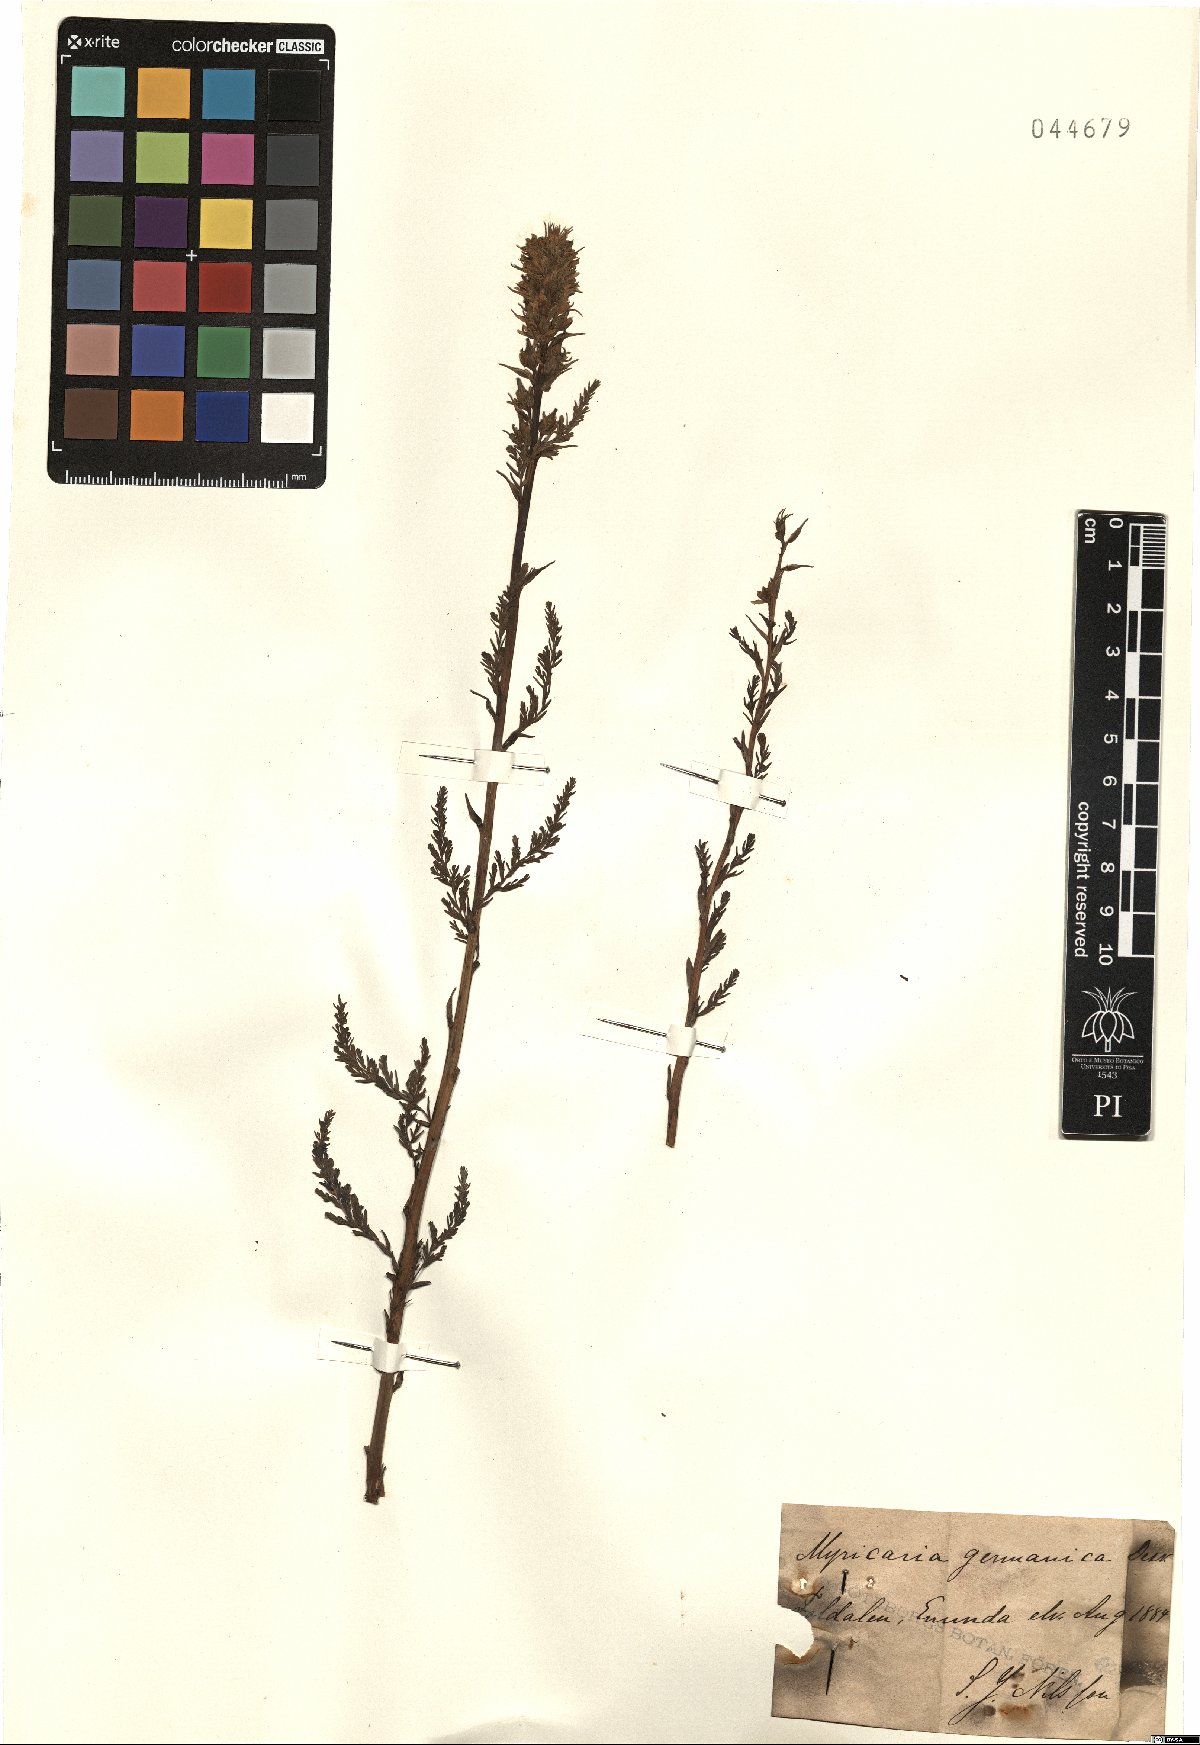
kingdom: Plantae
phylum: Tracheophyta
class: Magnoliopsida
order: Caryophyllales
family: Tamaricaceae
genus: Myricaria
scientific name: Myricaria germanica
